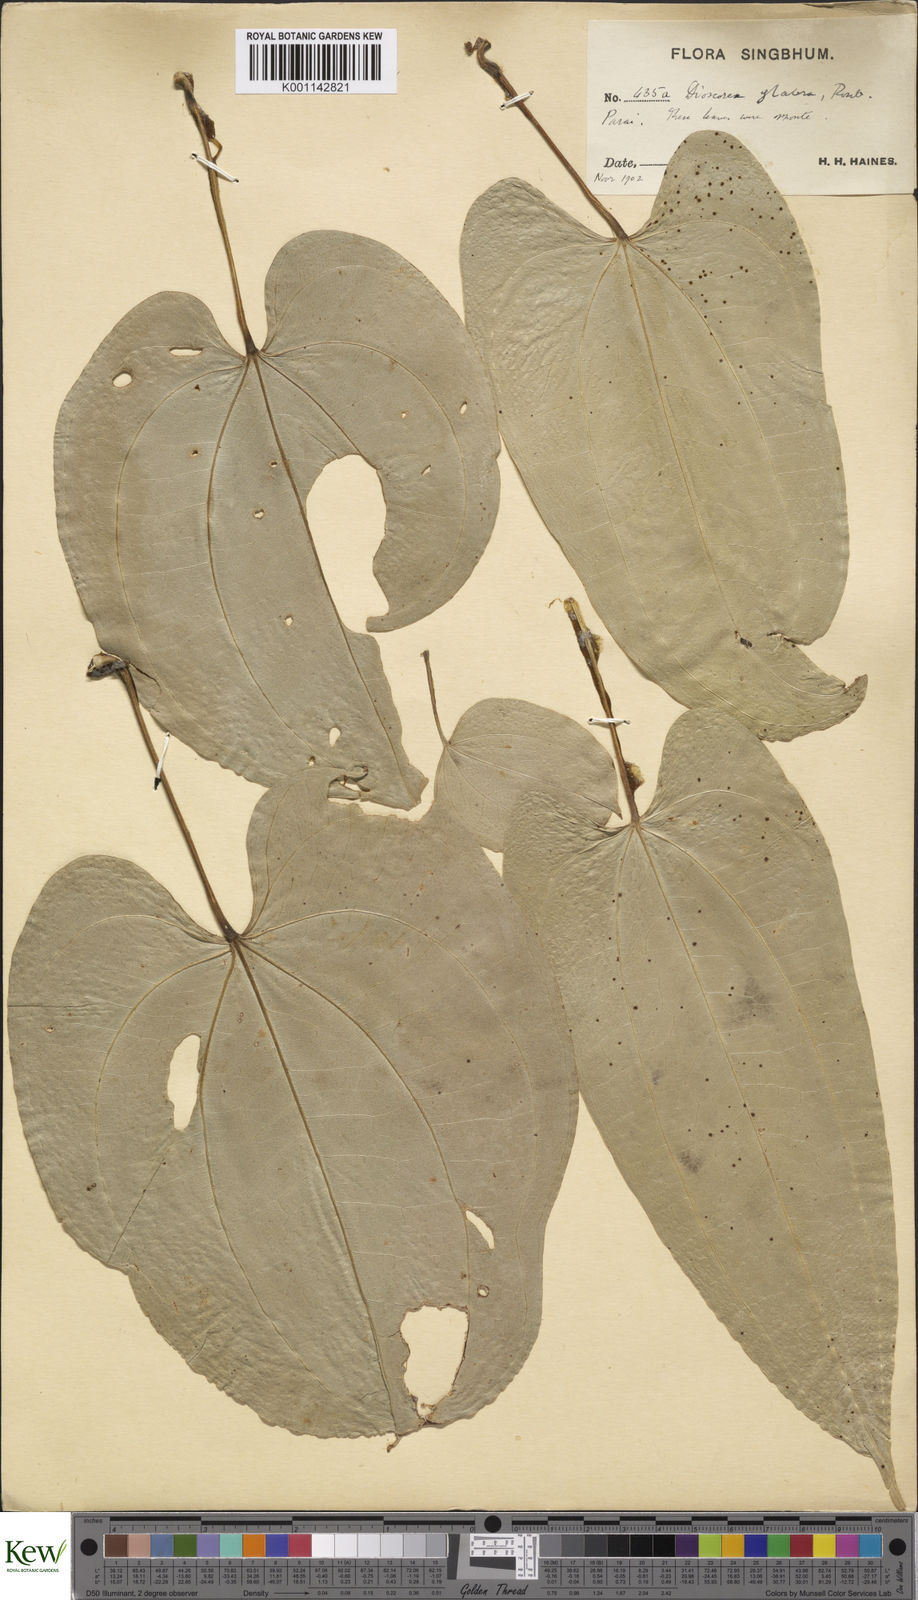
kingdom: Plantae
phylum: Tracheophyta
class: Liliopsida
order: Dioscoreales
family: Dioscoreaceae
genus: Dioscorea
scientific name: Dioscorea glabra
